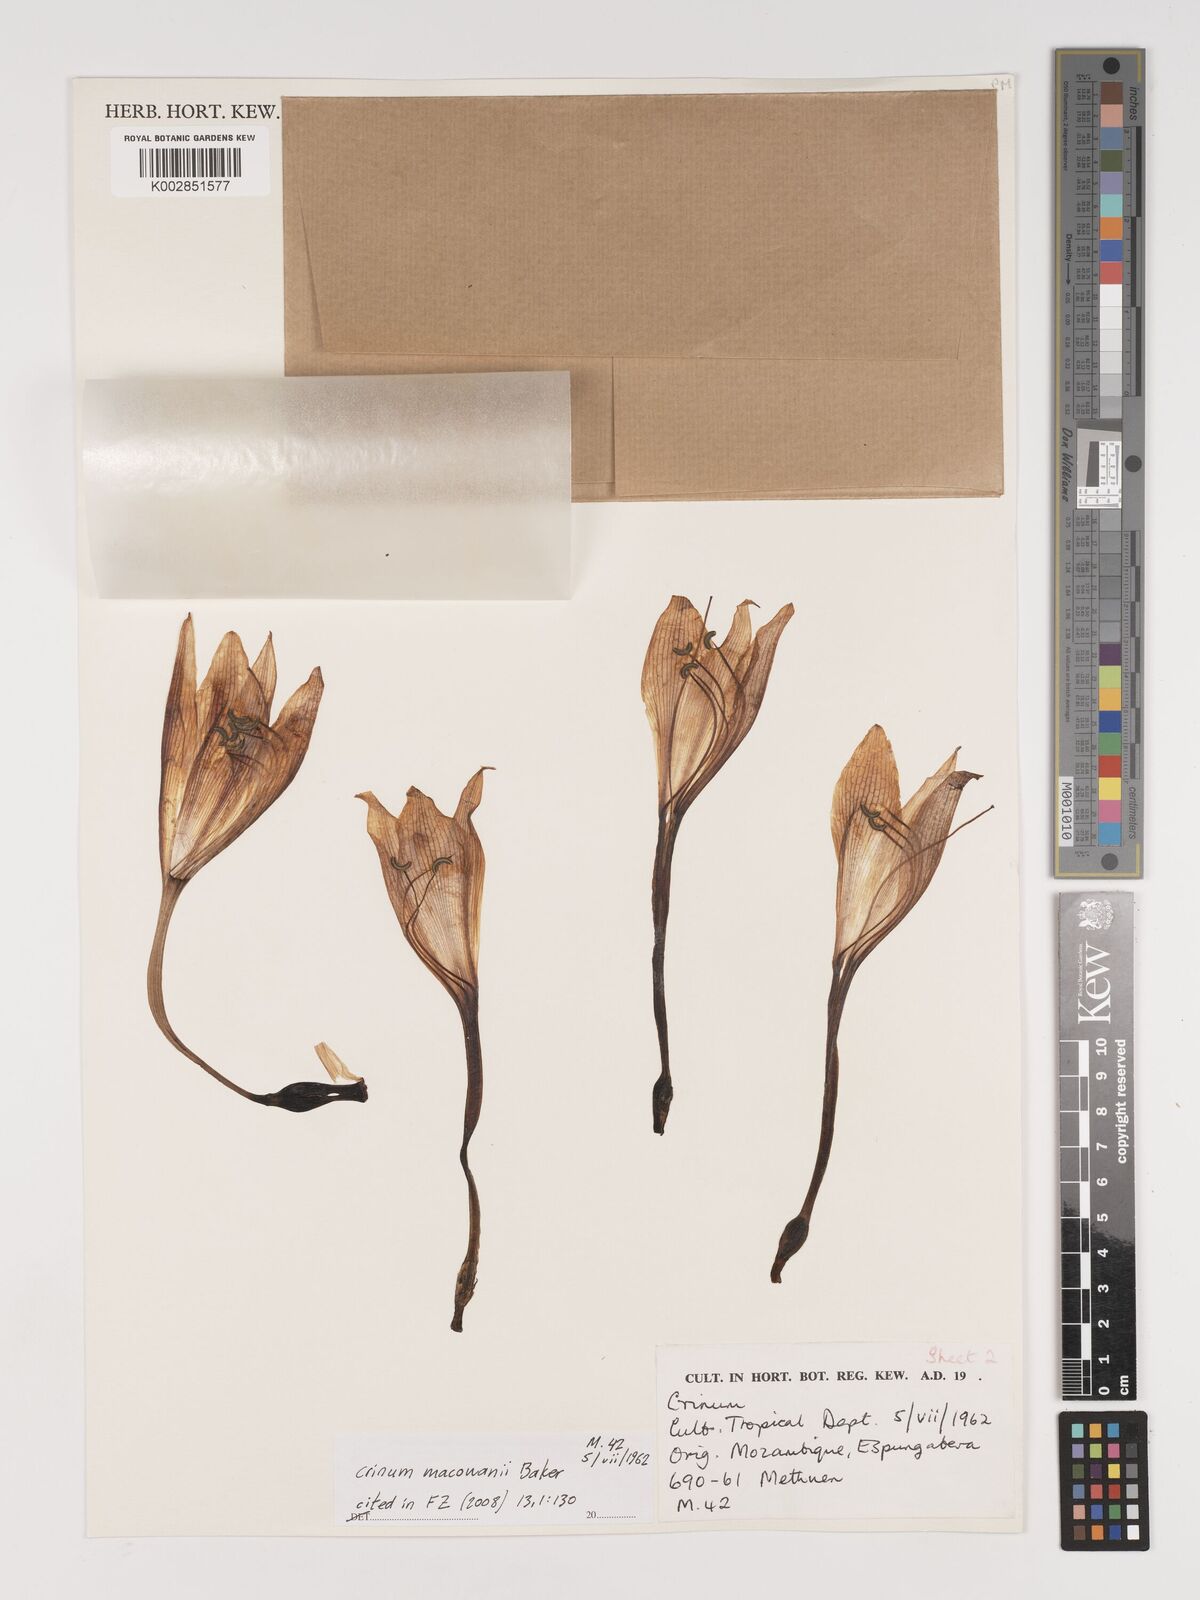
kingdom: Plantae
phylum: Tracheophyta
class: Liliopsida
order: Asparagales
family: Amaryllidaceae
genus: Crinum
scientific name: Crinum macowanii
